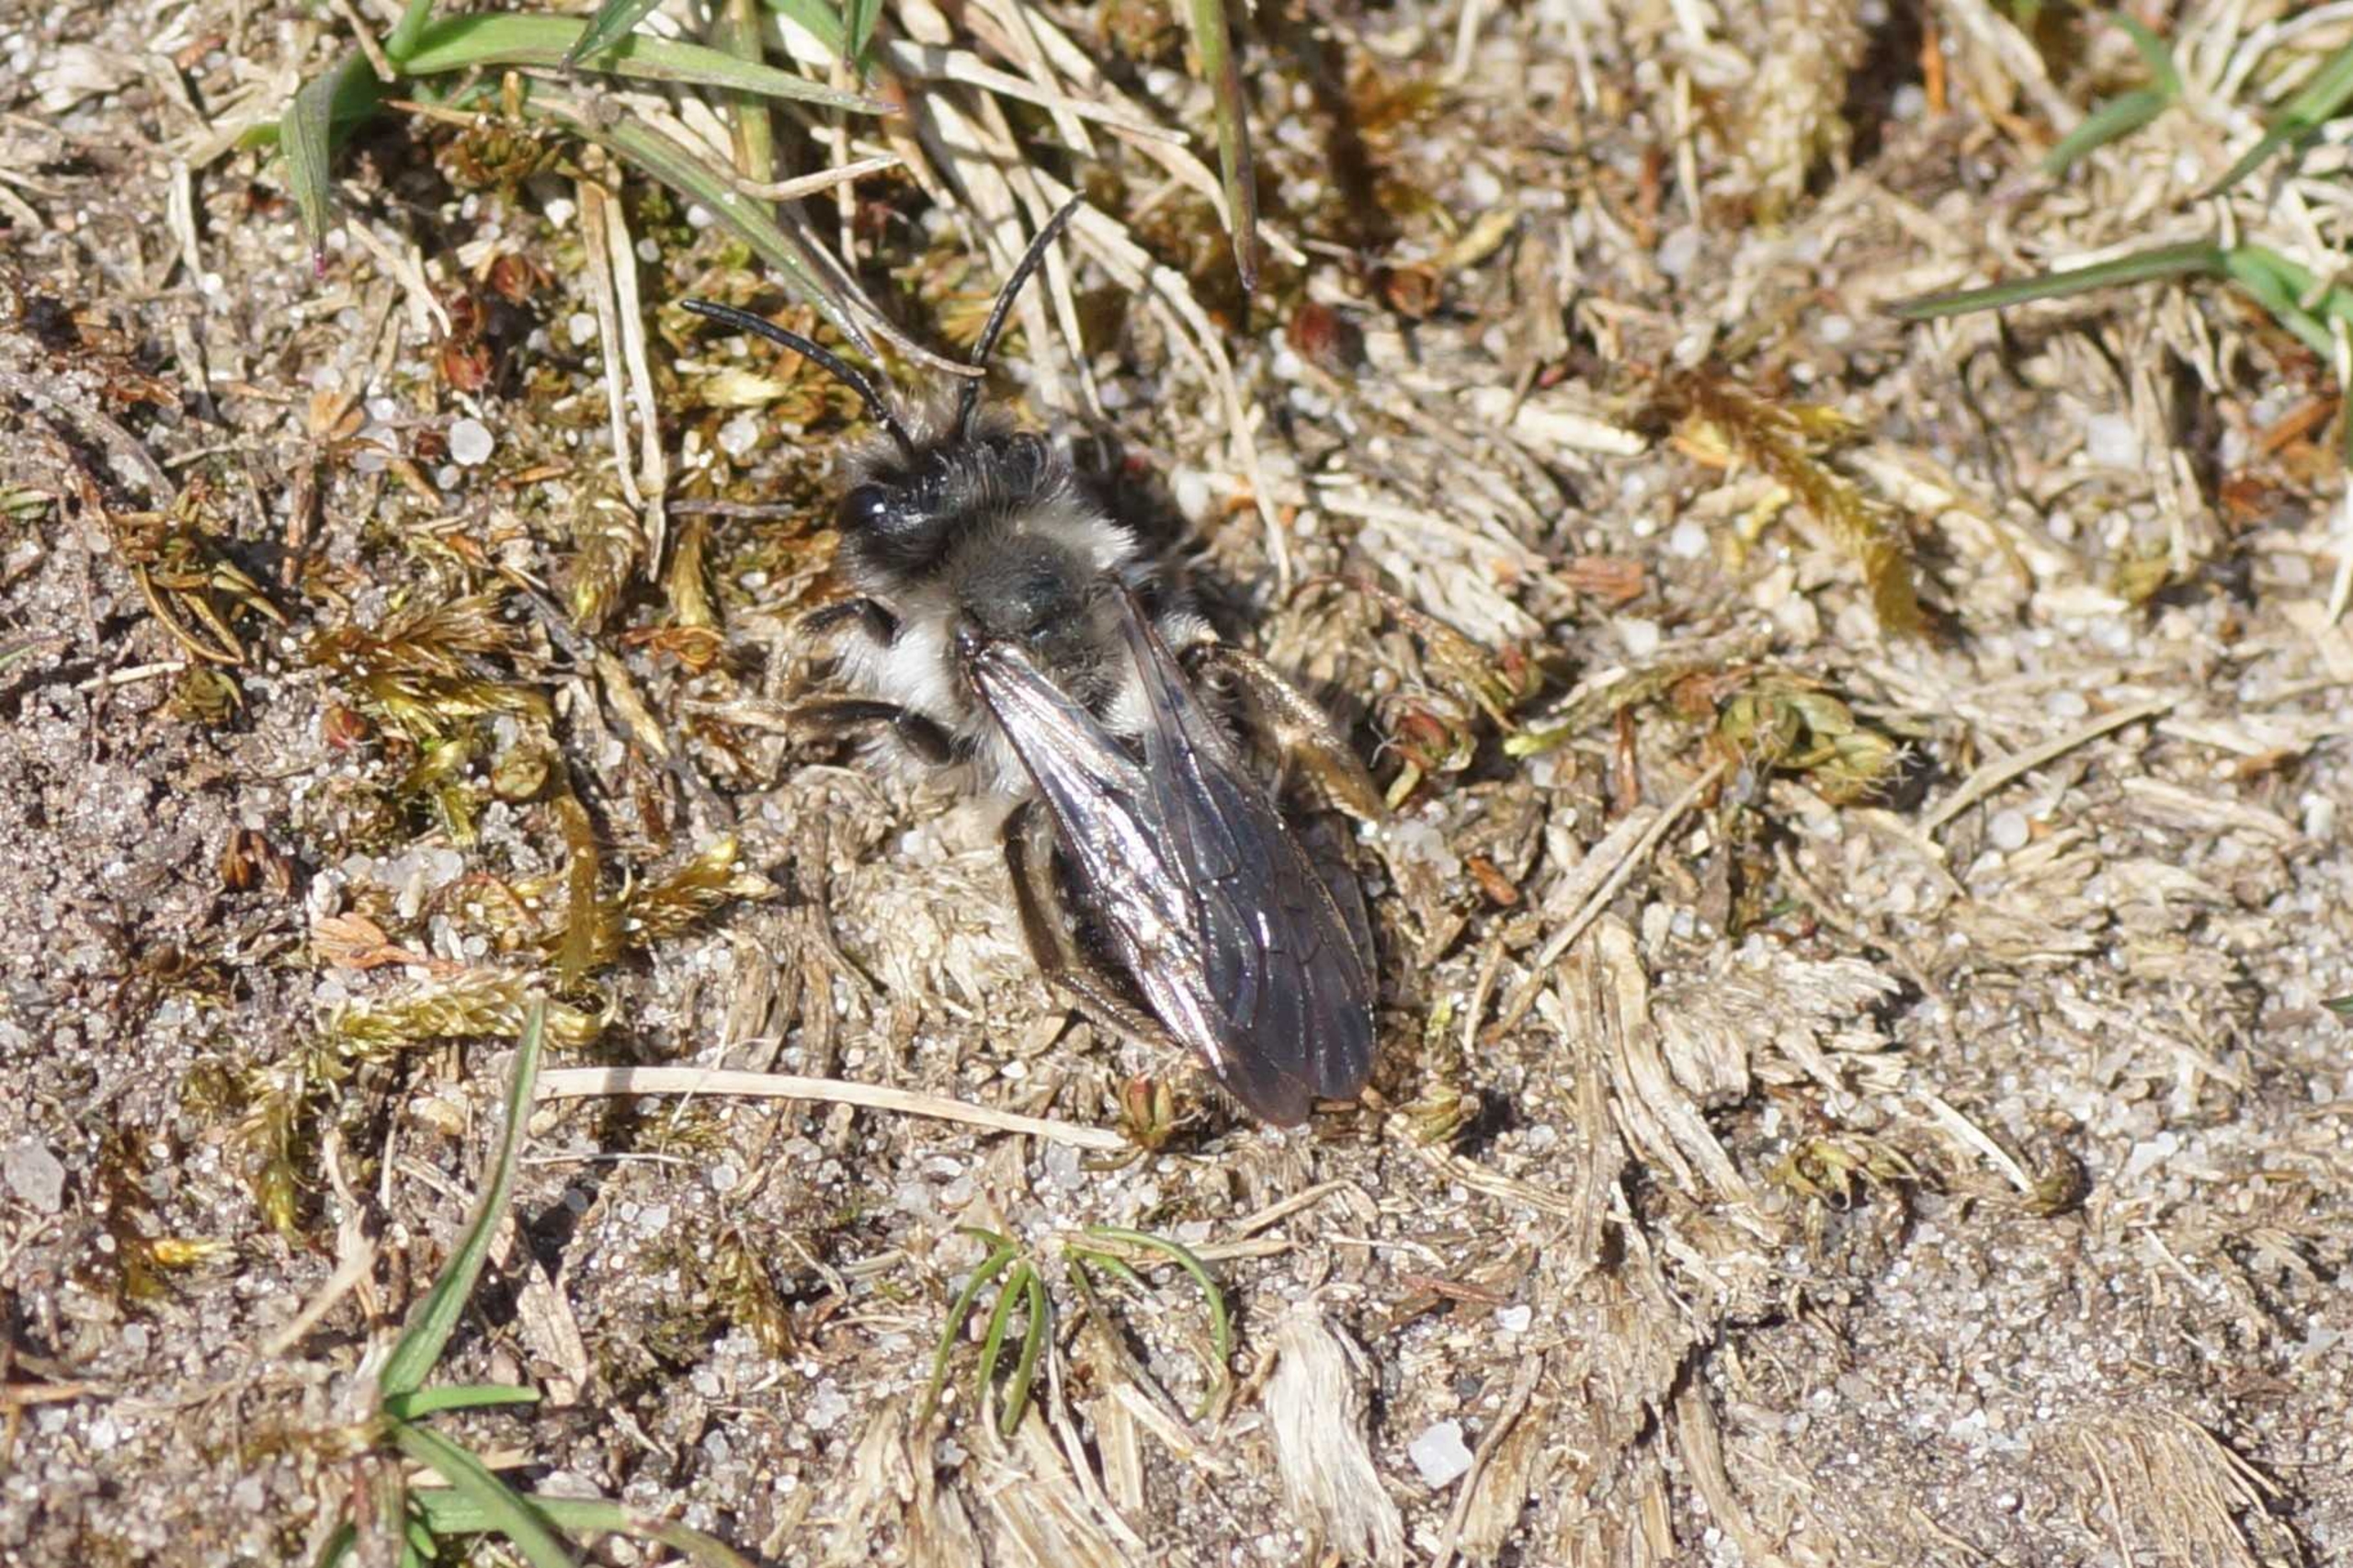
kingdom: Animalia
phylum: Arthropoda
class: Insecta
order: Hymenoptera
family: Andrenidae
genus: Andrena
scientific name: Andrena cineraria
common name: Sorthvid jordbi
